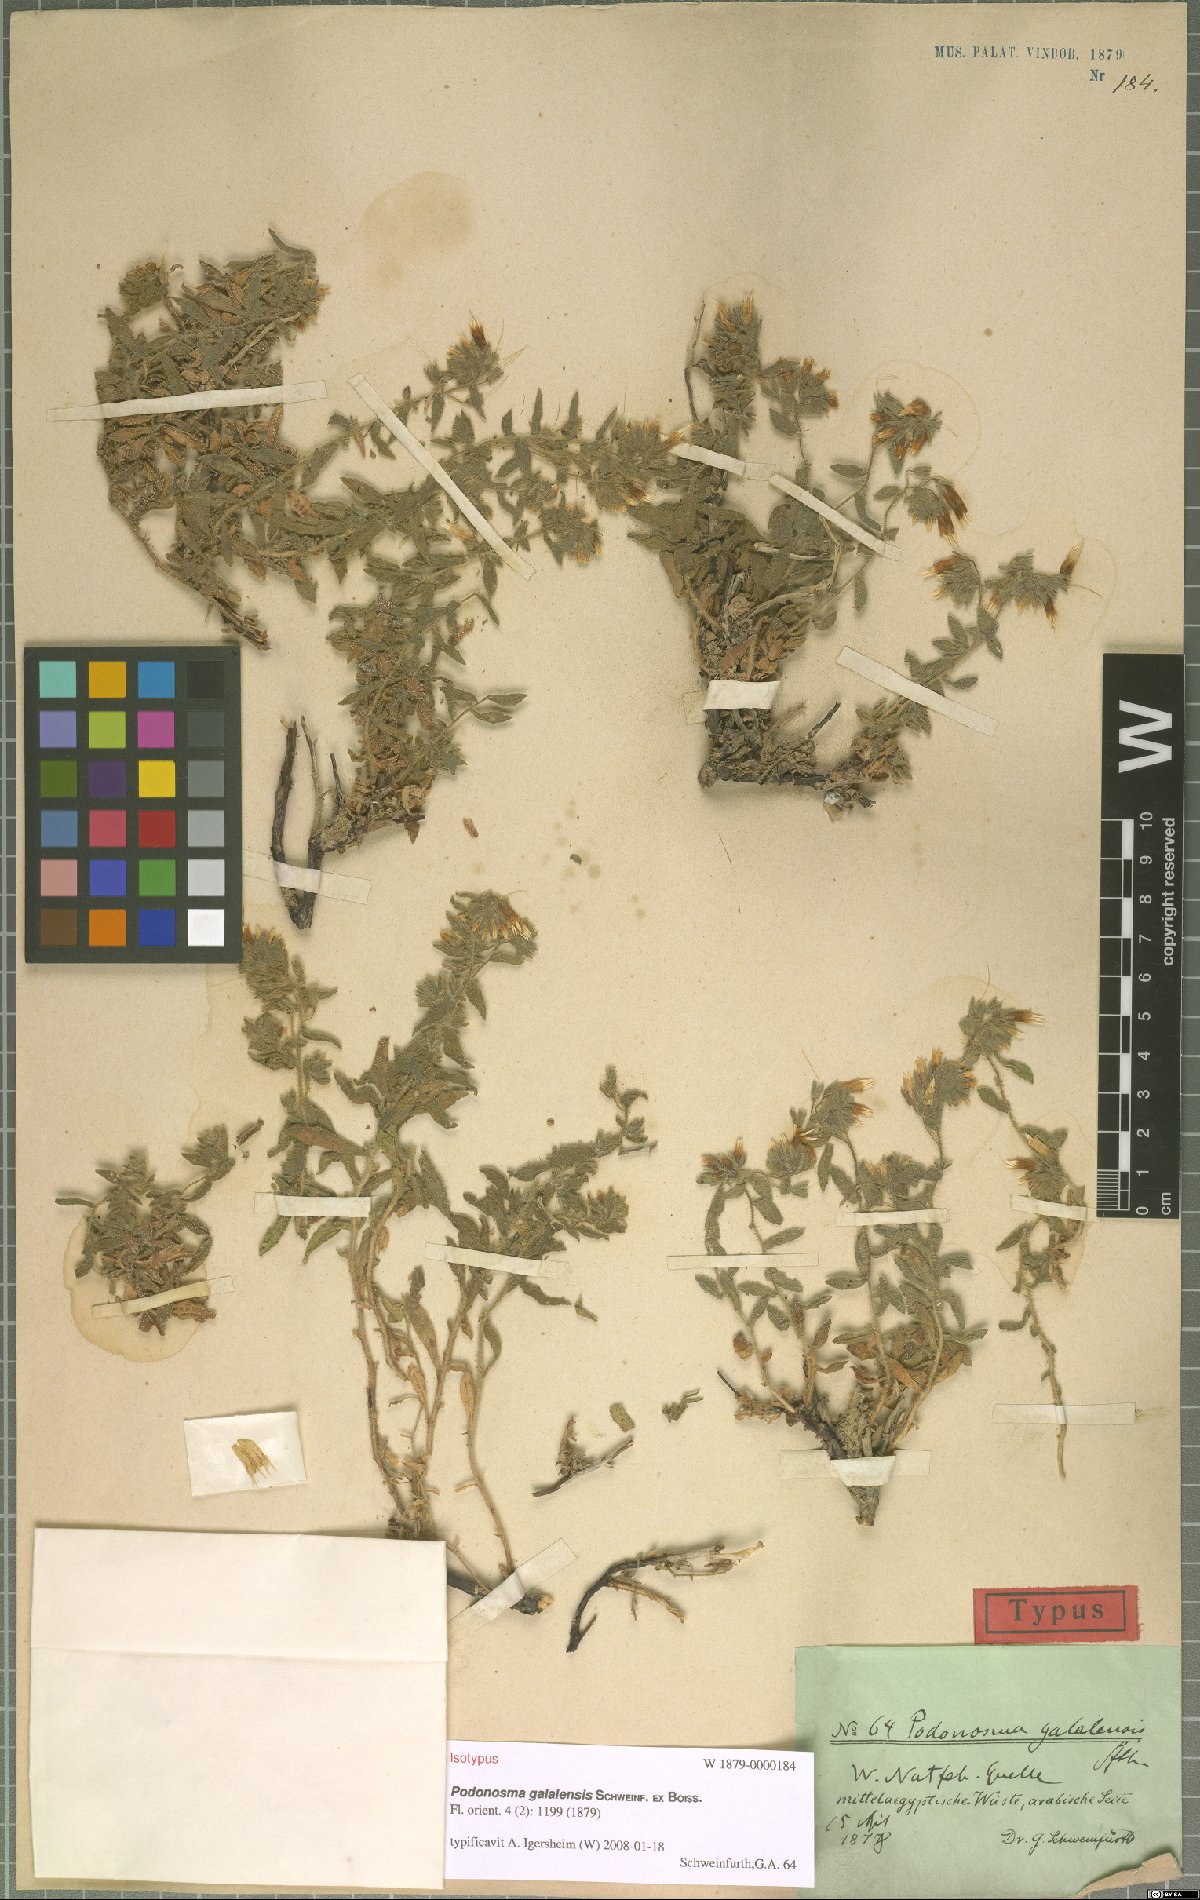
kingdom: Plantae
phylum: Tracheophyta
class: Magnoliopsida
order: Boraginales
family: Boraginaceae
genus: Podonosma
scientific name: Podonosma galalensis
